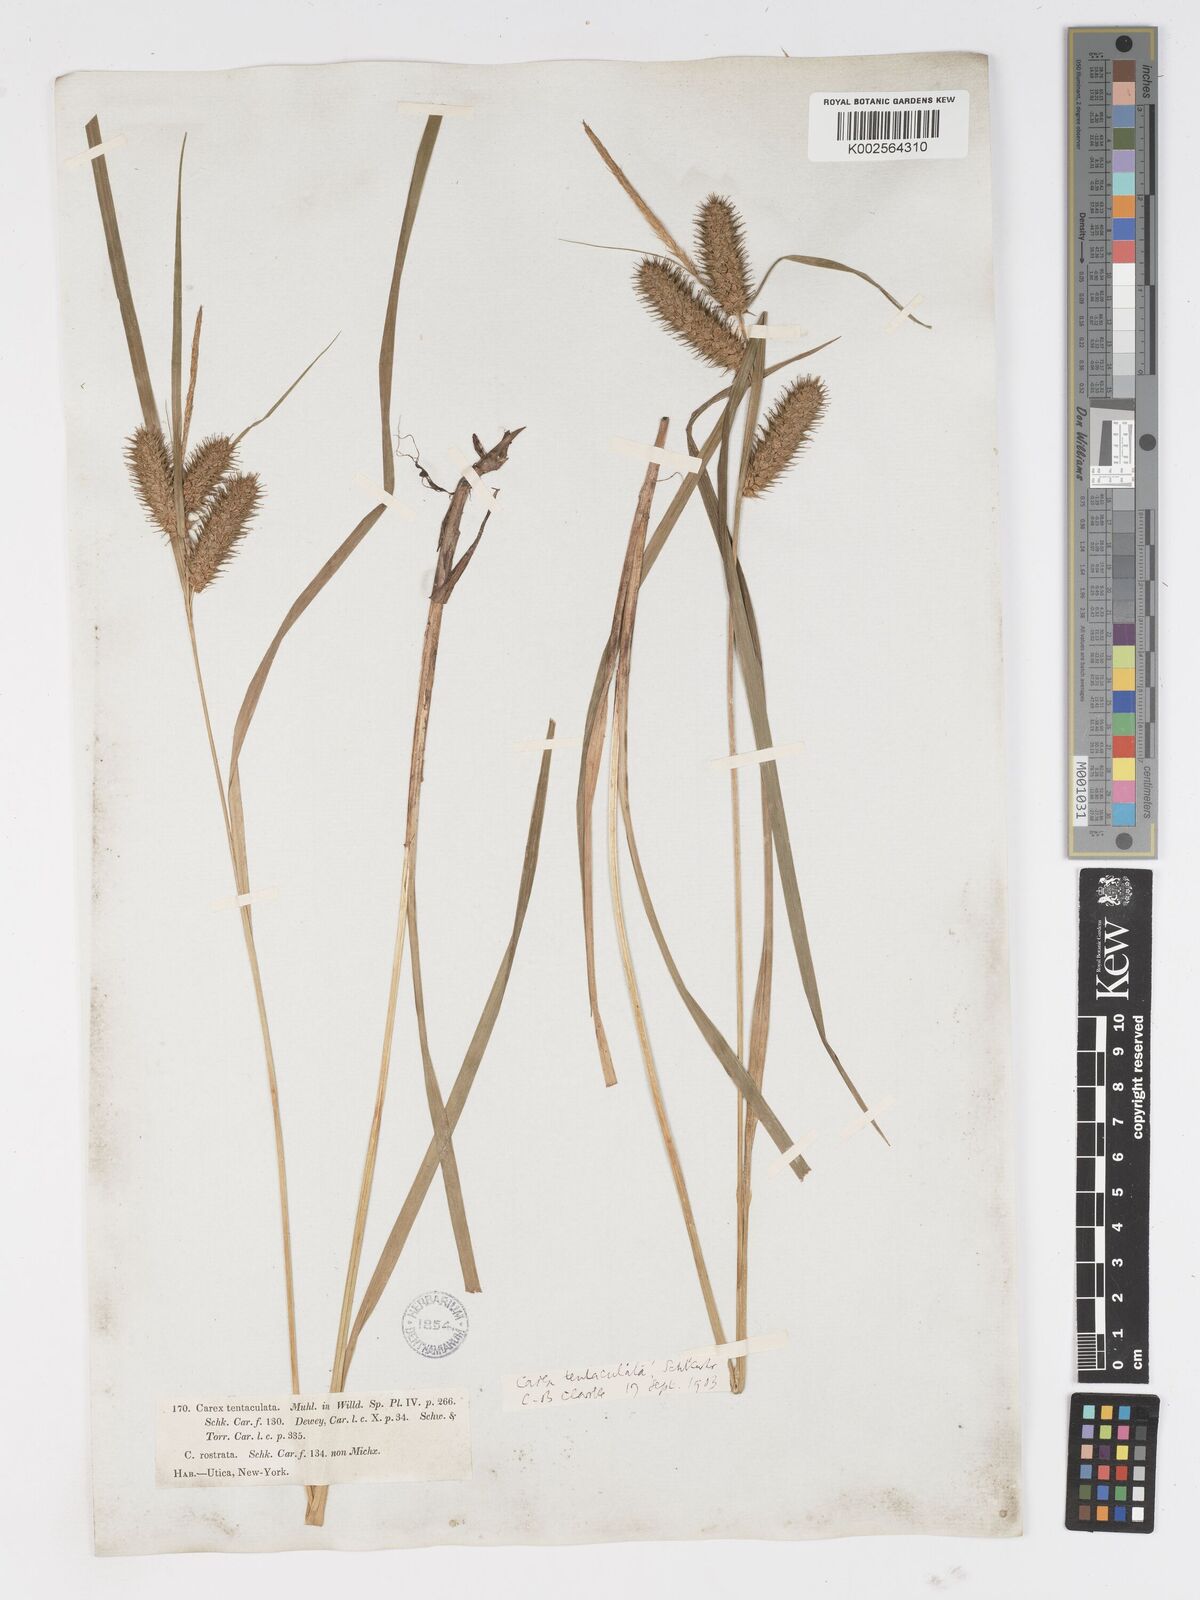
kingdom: Plantae
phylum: Tracheophyta
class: Liliopsida
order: Poales
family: Cyperaceae
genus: Carex
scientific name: Carex lurida
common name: Sallow sedge
